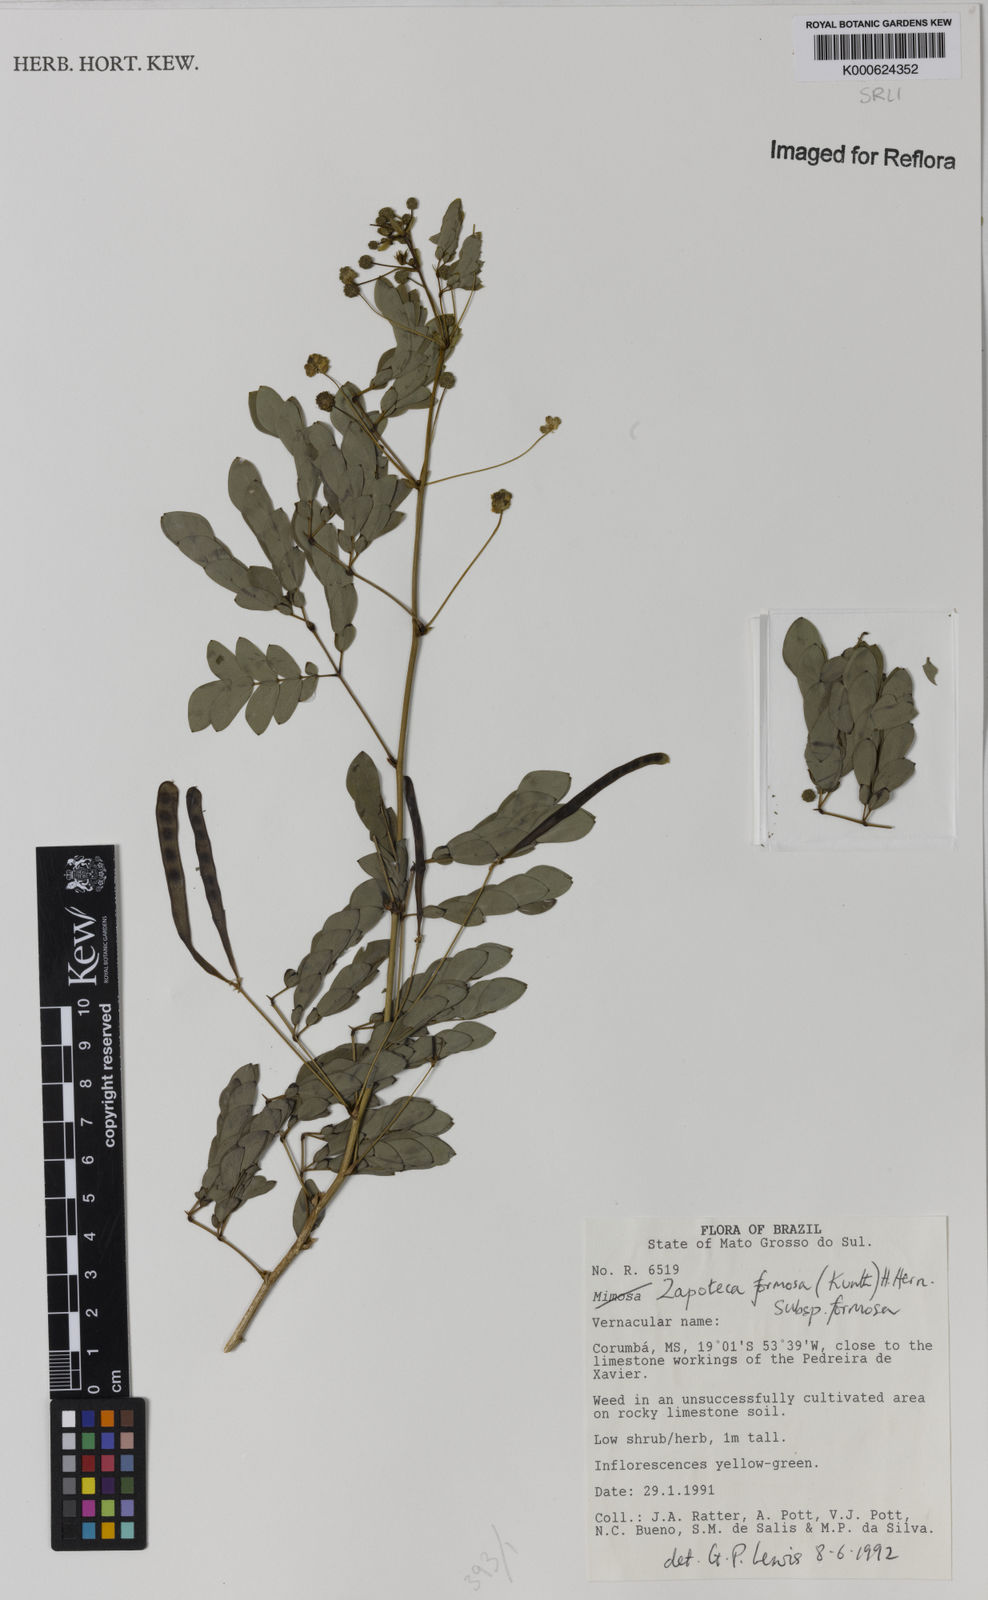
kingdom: Plantae
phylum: Tracheophyta
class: Magnoliopsida
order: Fabales
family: Fabaceae
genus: Zapoteca
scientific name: Zapoteca formosa
